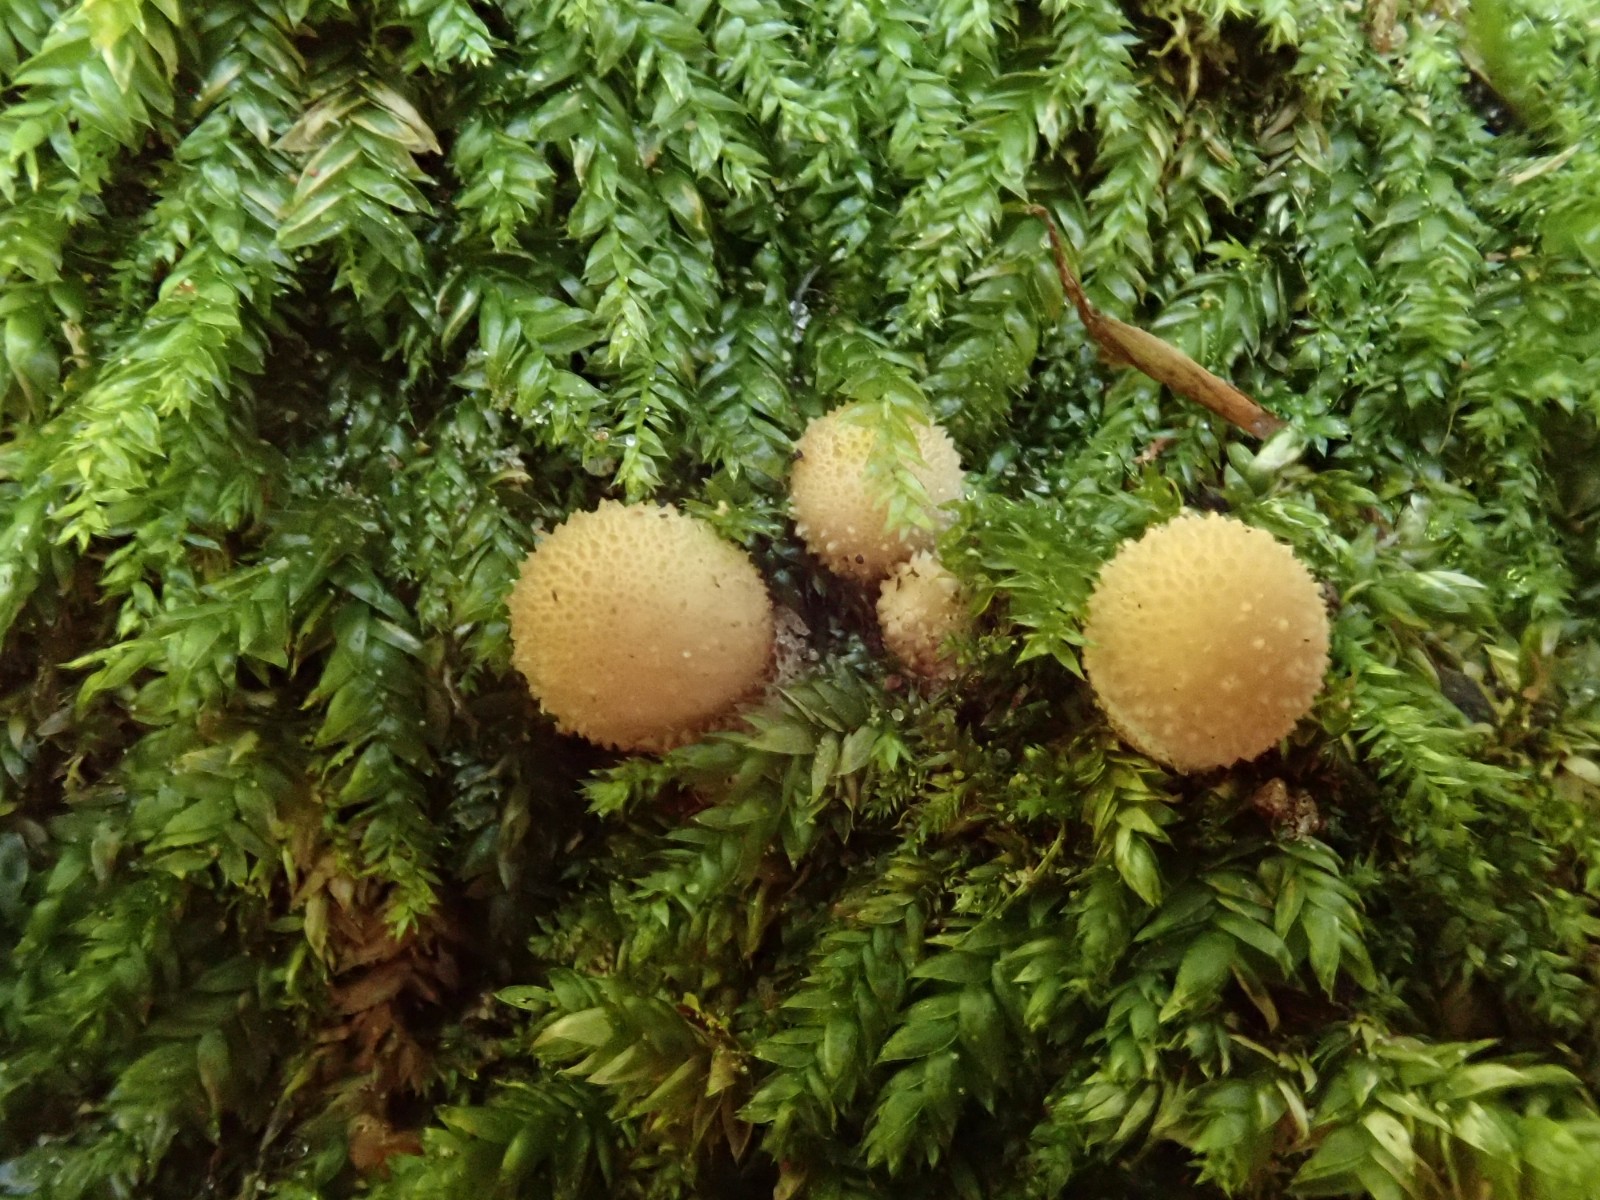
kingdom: Fungi
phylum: Basidiomycota
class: Agaricomycetes
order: Agaricales
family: Lycoperdaceae
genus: Apioperdon
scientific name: Apioperdon pyriforme
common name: pære-støvbold
